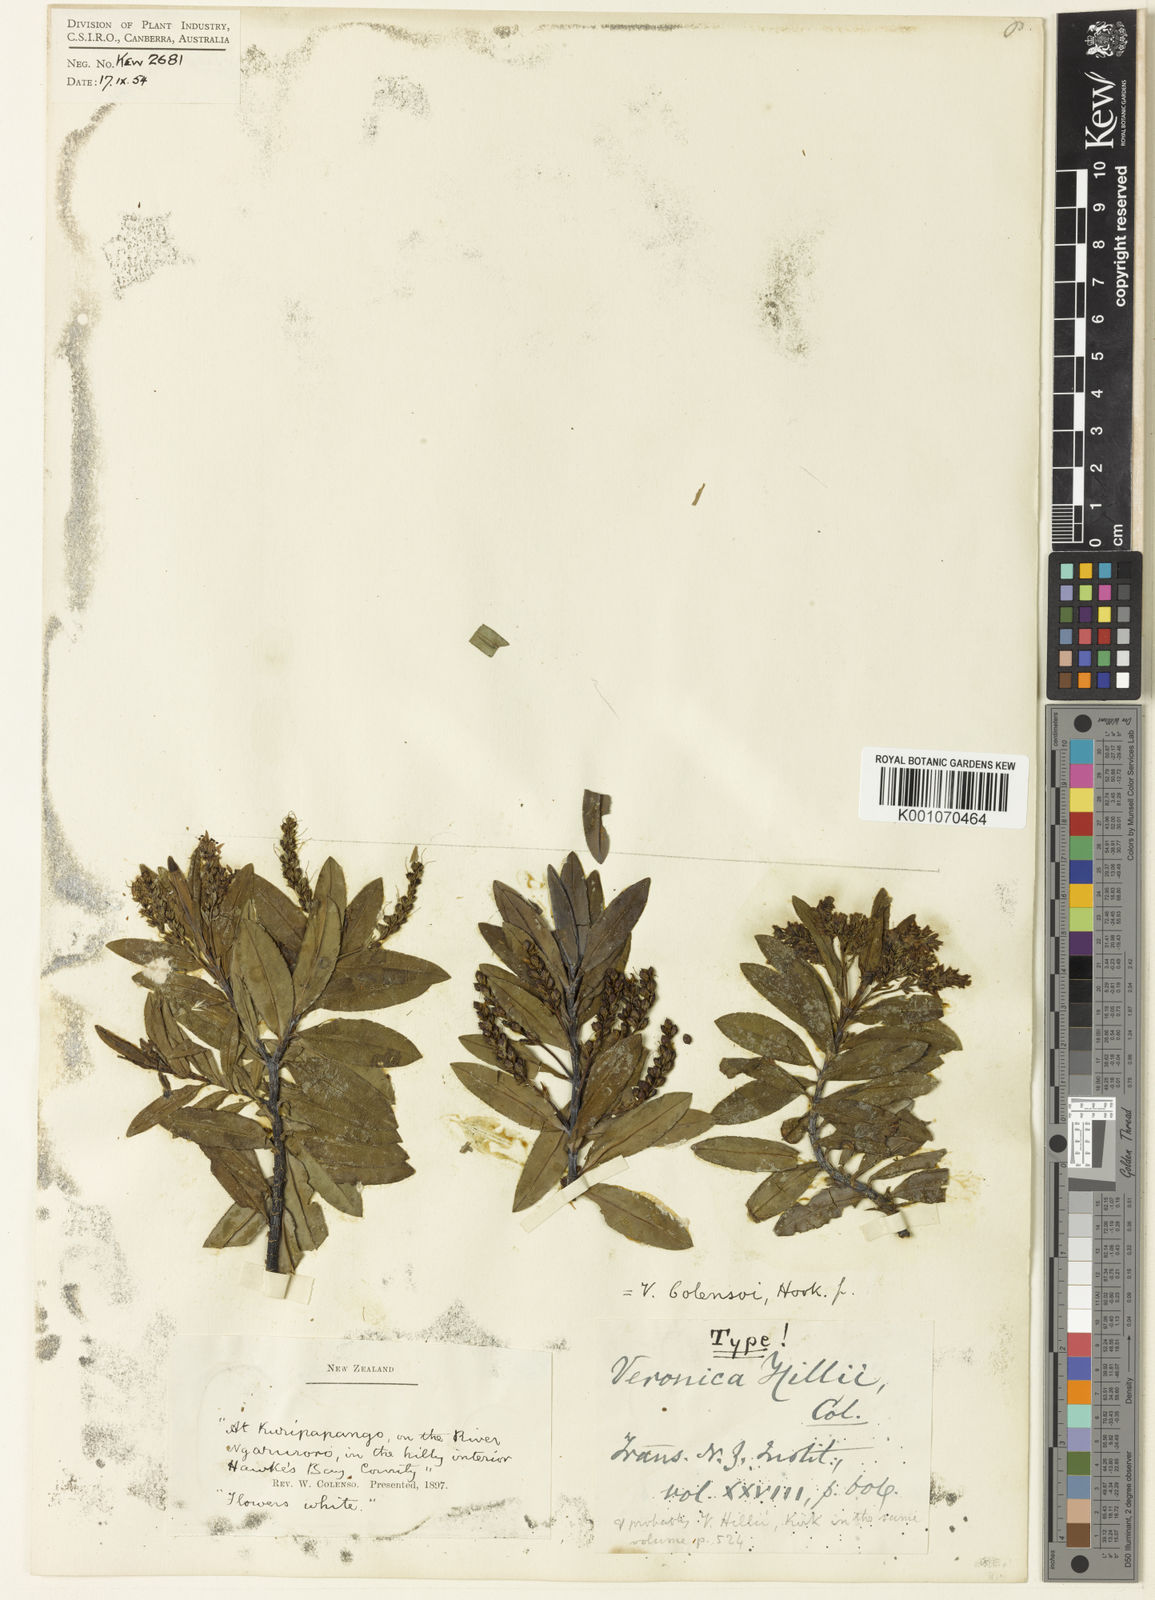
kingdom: Plantae
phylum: Tracheophyta
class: Magnoliopsida
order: Lamiales
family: Plantaginaceae
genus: Veronica
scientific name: Veronica
